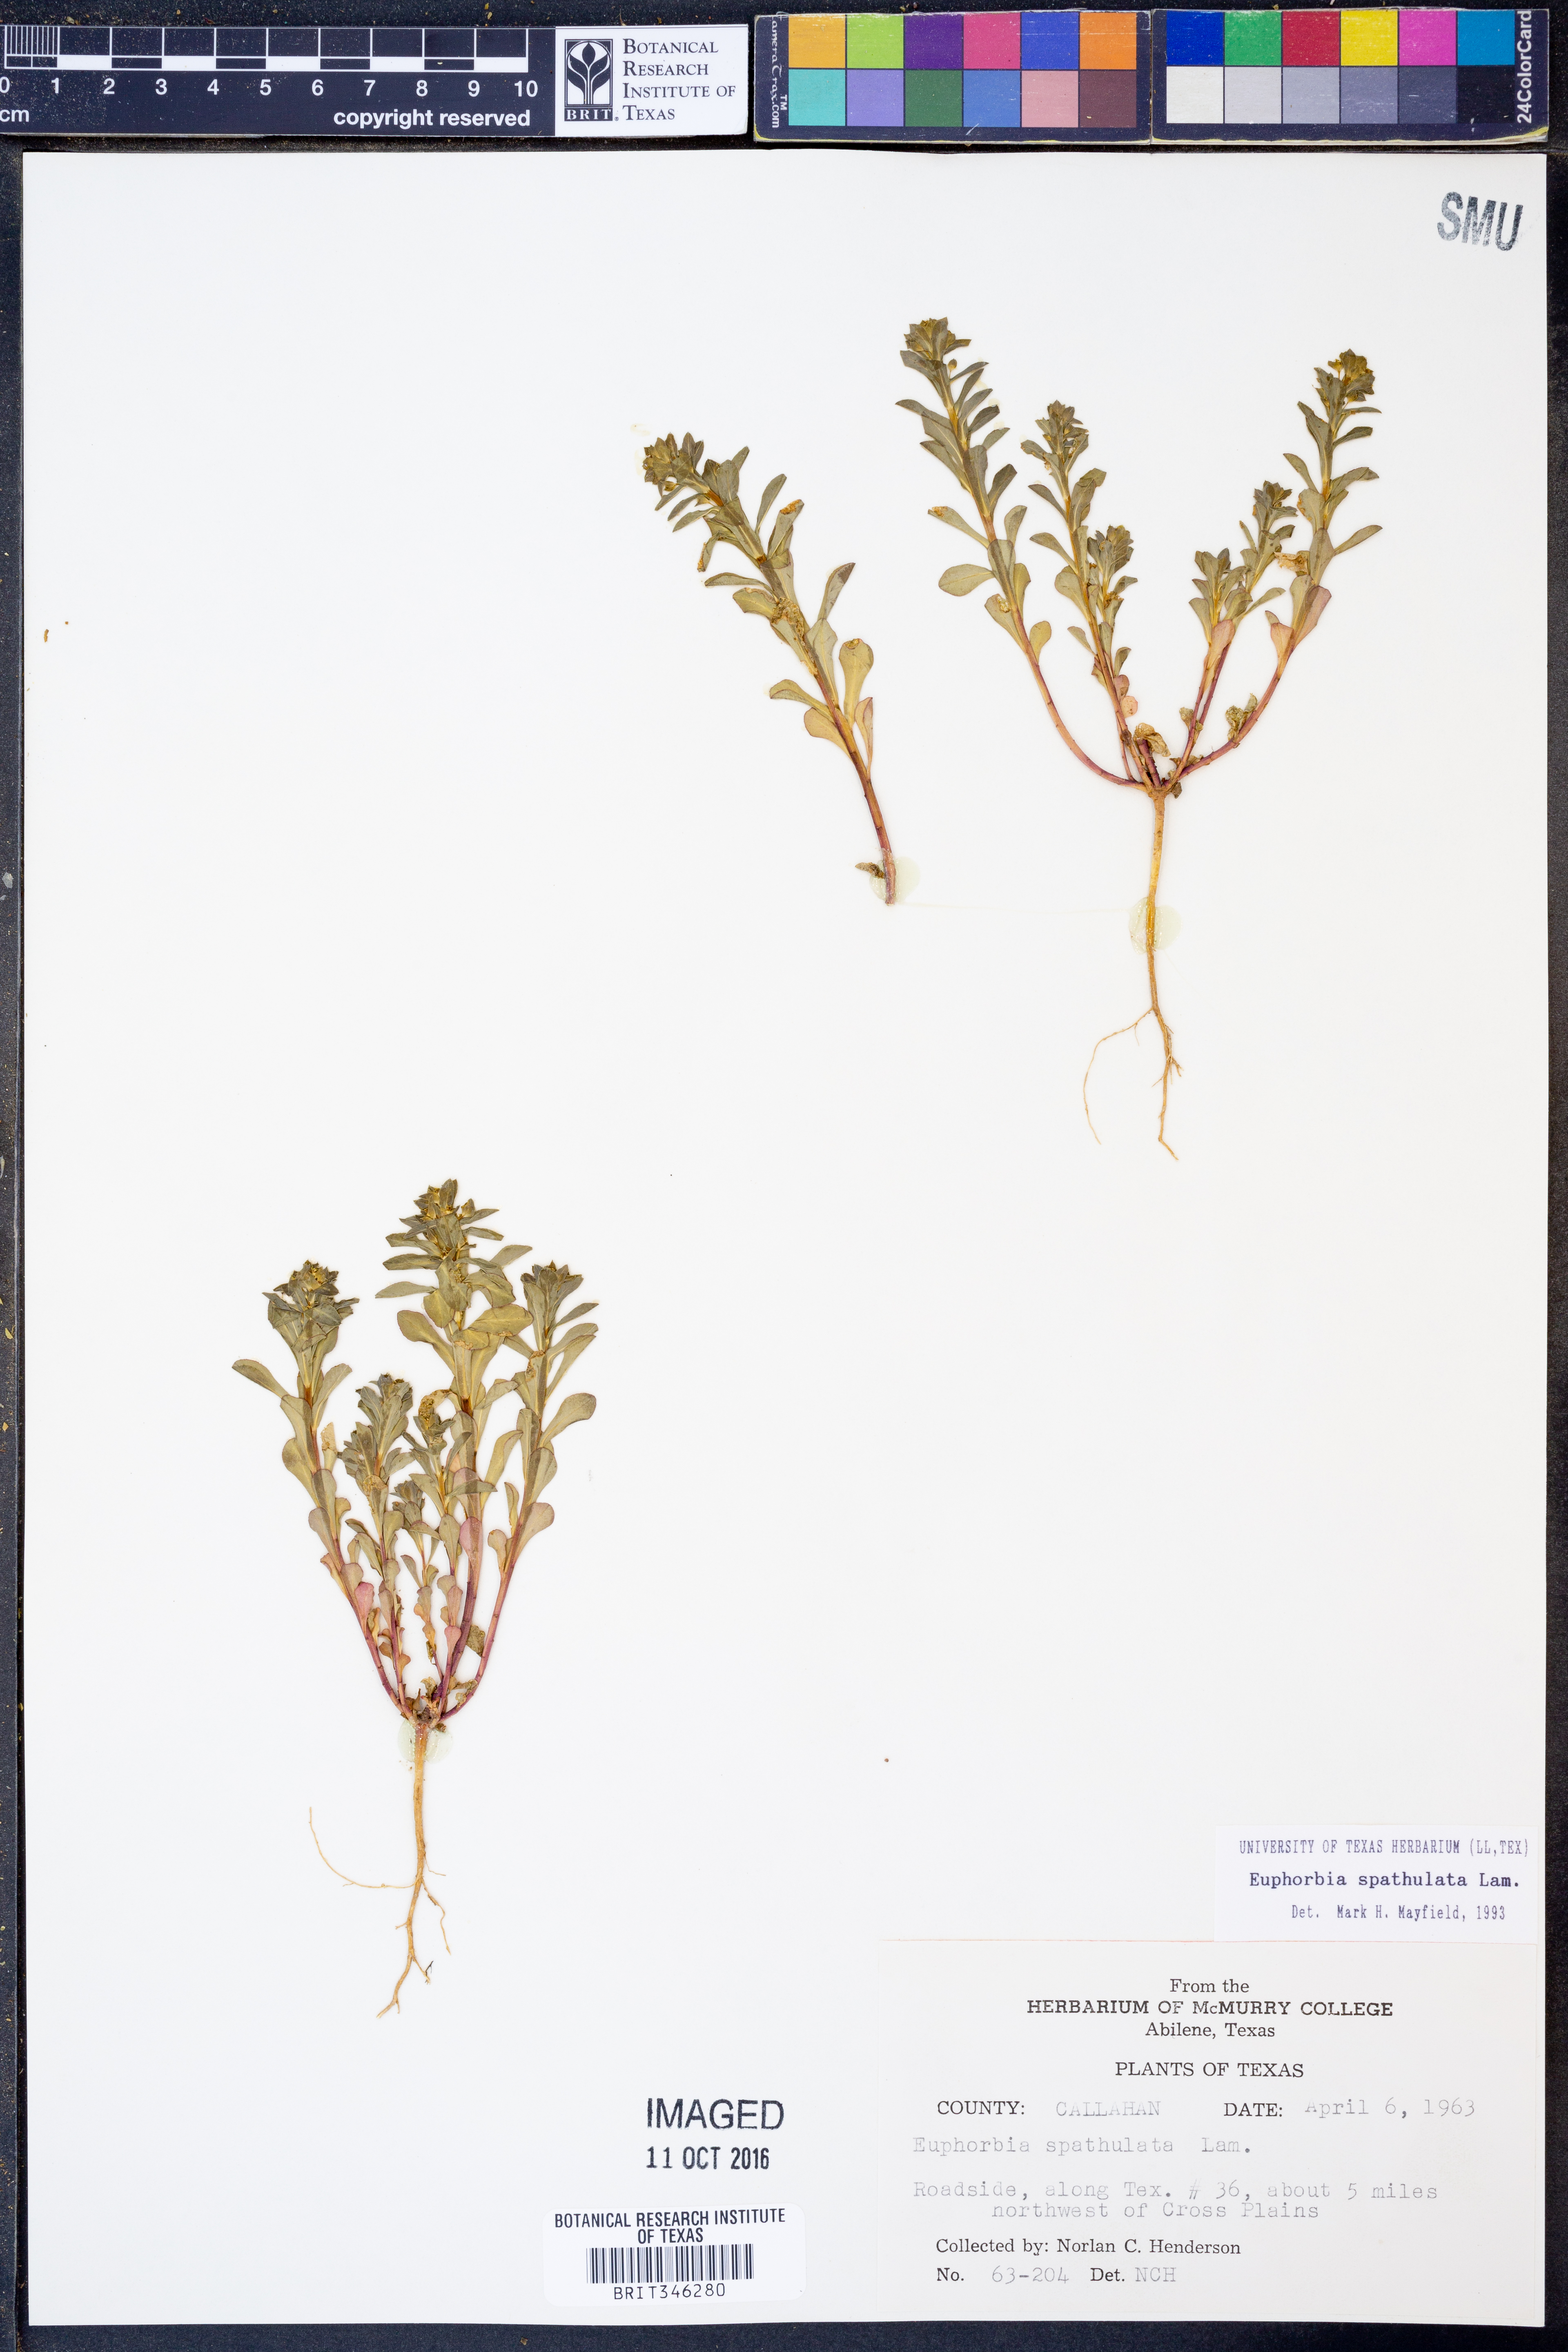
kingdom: Plantae
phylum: Tracheophyta
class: Magnoliopsida
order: Malpighiales
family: Euphorbiaceae
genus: Euphorbia
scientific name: Euphorbia spathulata
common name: Blunt spurge
